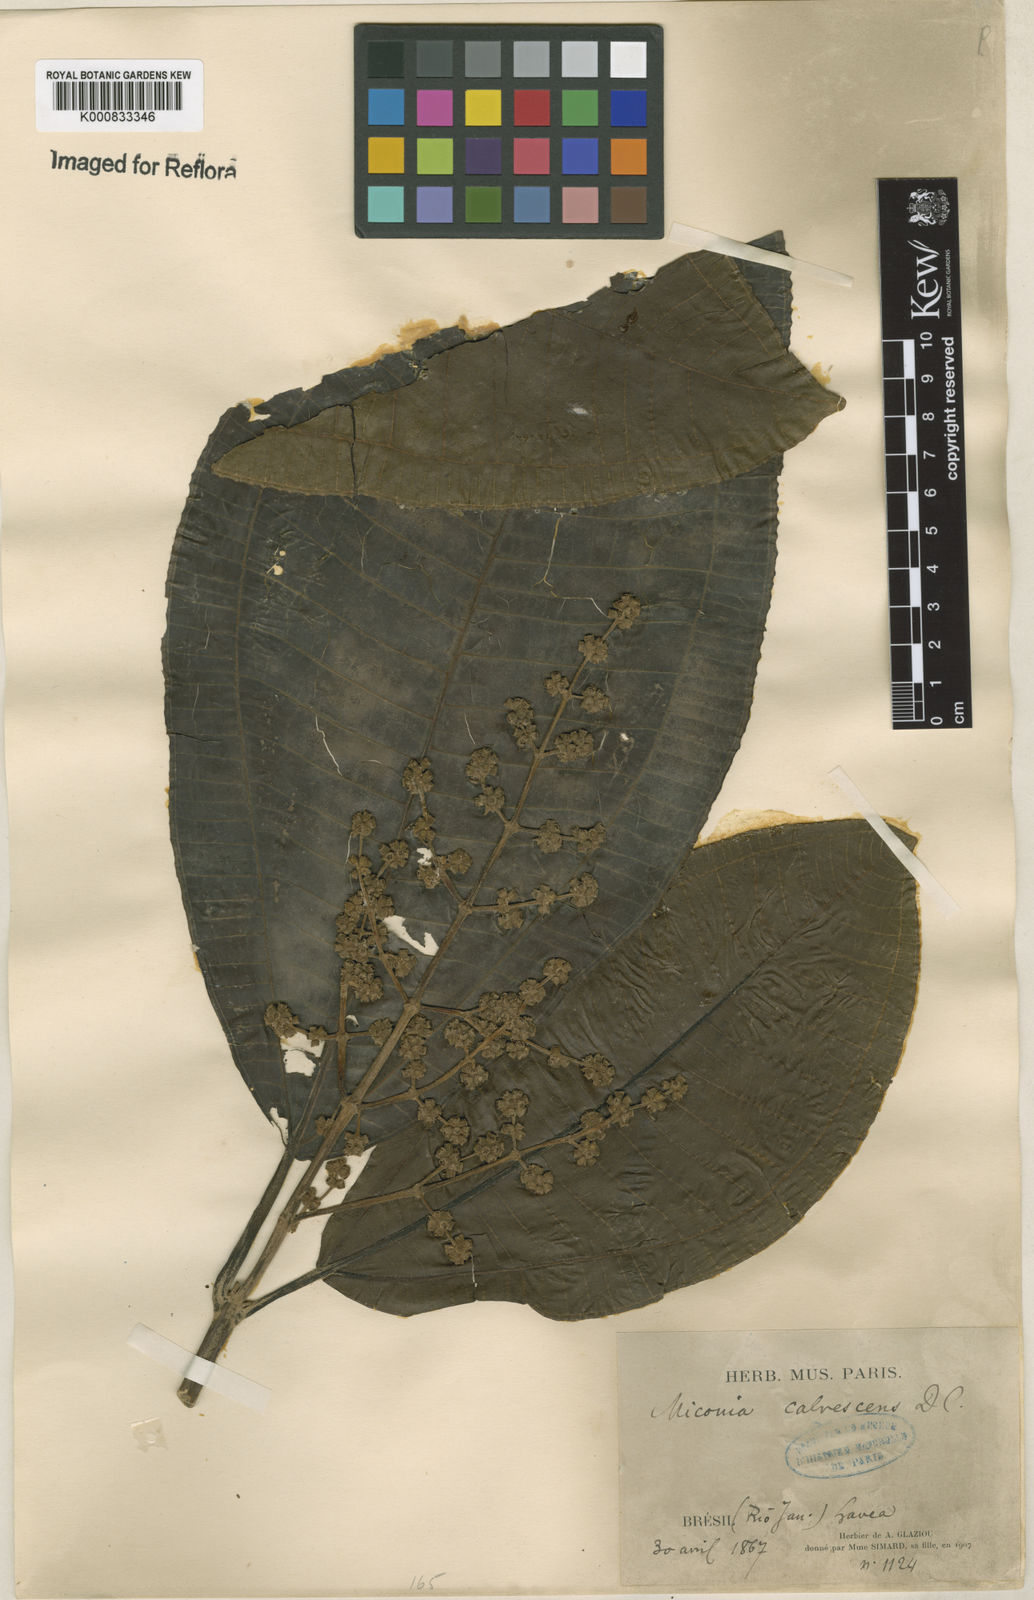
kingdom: Plantae
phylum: Tracheophyta
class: Magnoliopsida
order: Myrtales
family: Melastomataceae
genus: Miconia
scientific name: Miconia calvescens
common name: Purple plague
